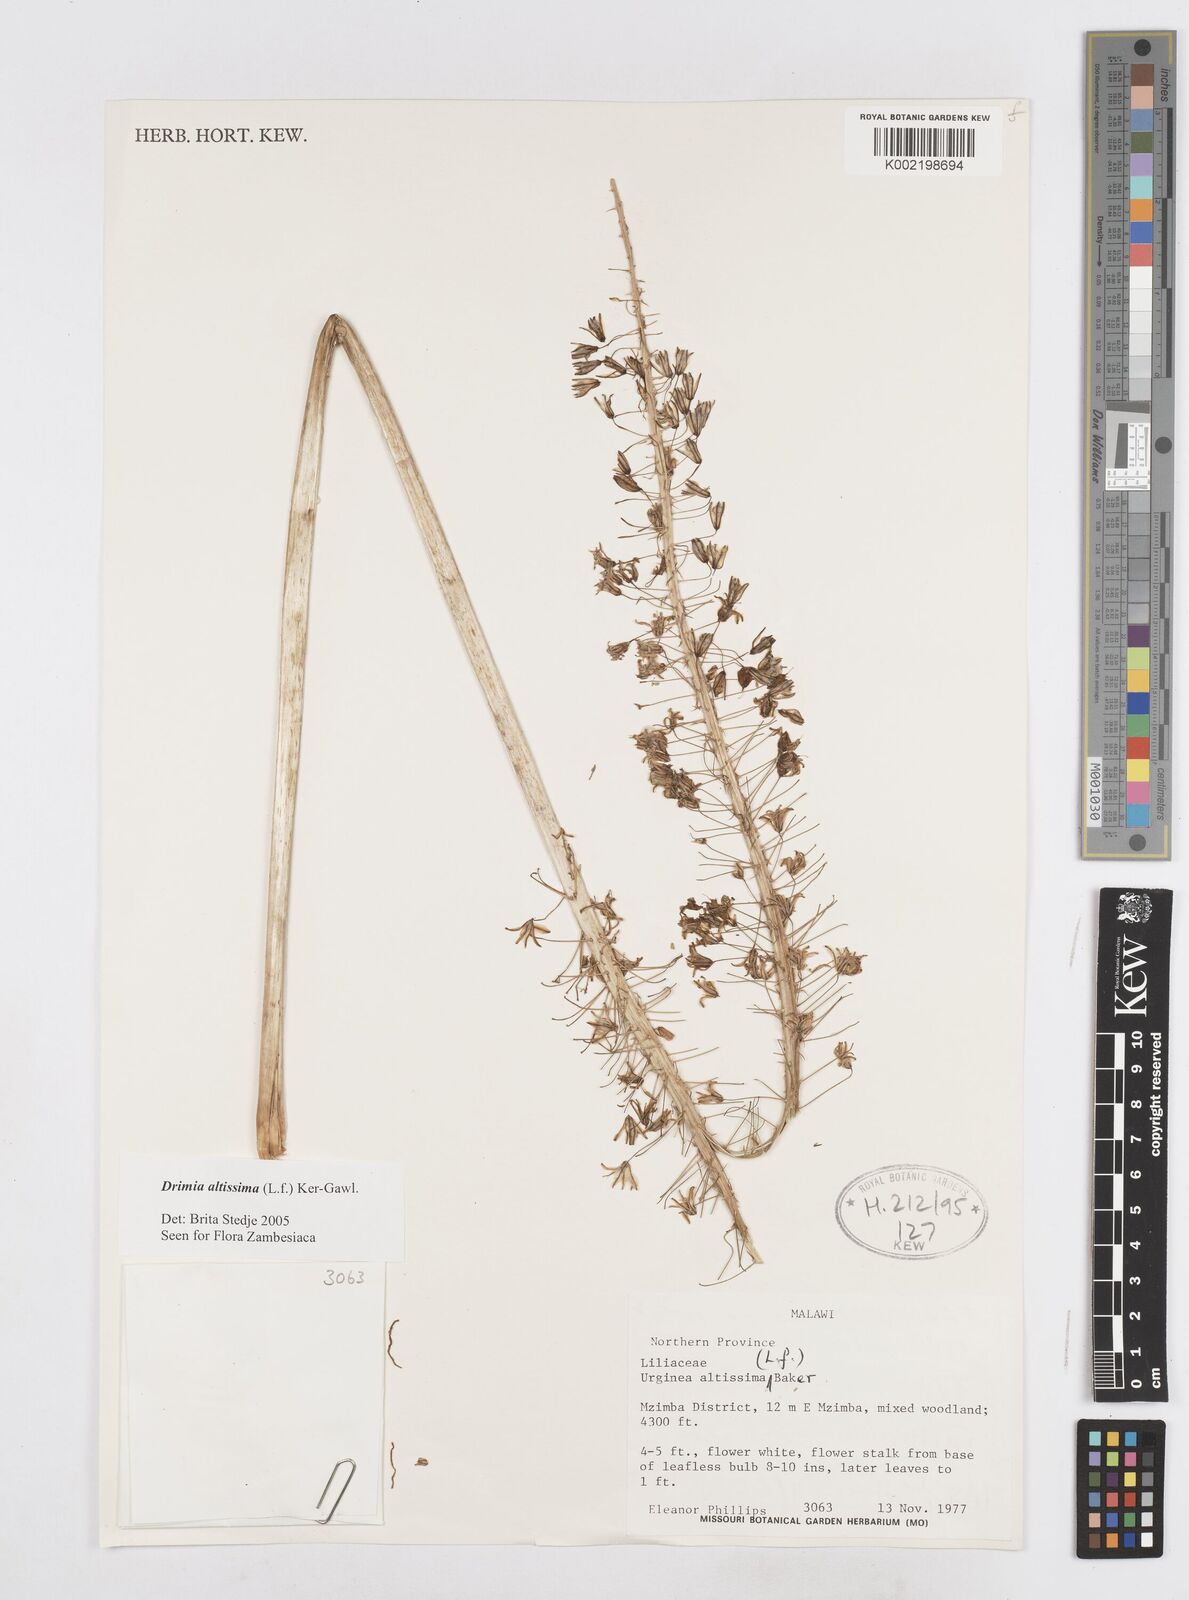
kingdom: Plantae
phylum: Tracheophyta
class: Liliopsida
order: Asparagales
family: Asparagaceae
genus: Drimia
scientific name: Drimia
